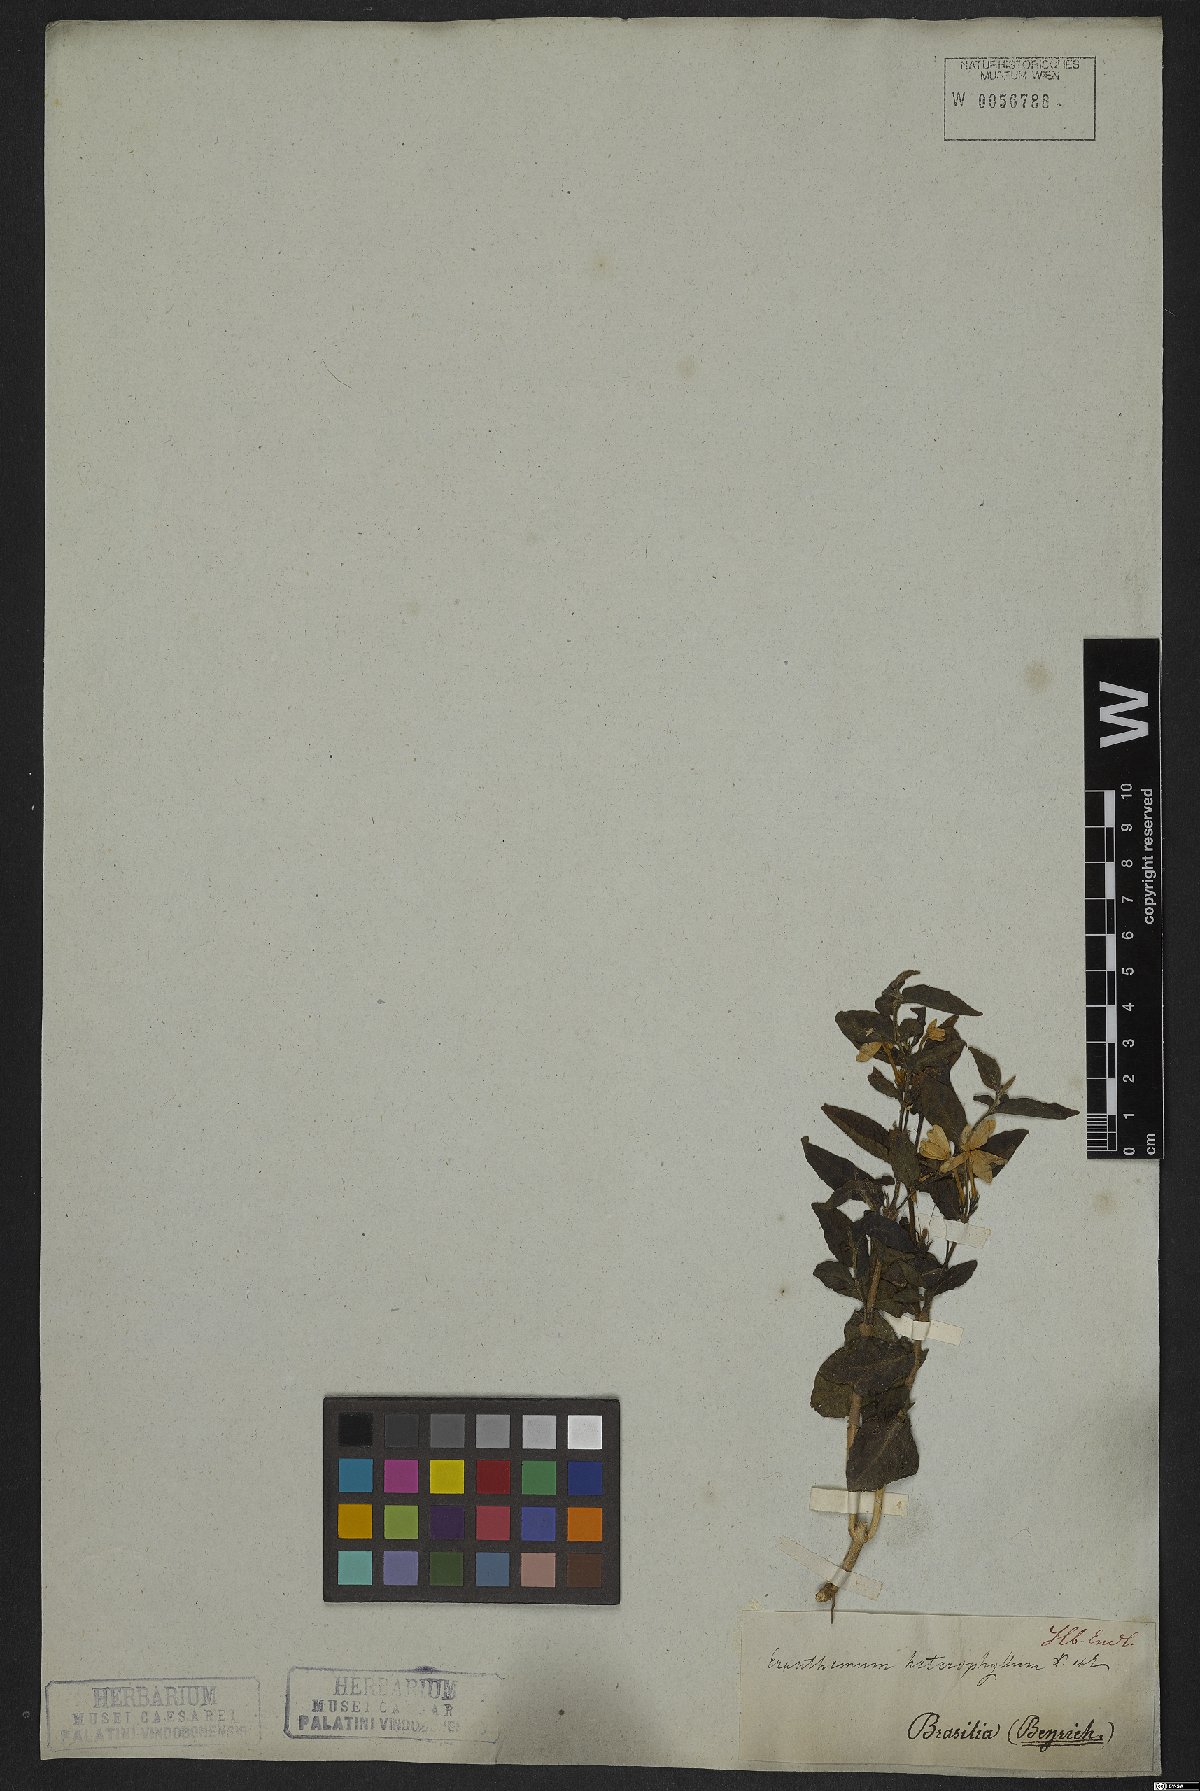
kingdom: Plantae
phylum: Tracheophyta
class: Magnoliopsida
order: Lamiales
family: Acanthaceae
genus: Pseuderanthemum
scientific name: Pseuderanthemum heterophyllum
